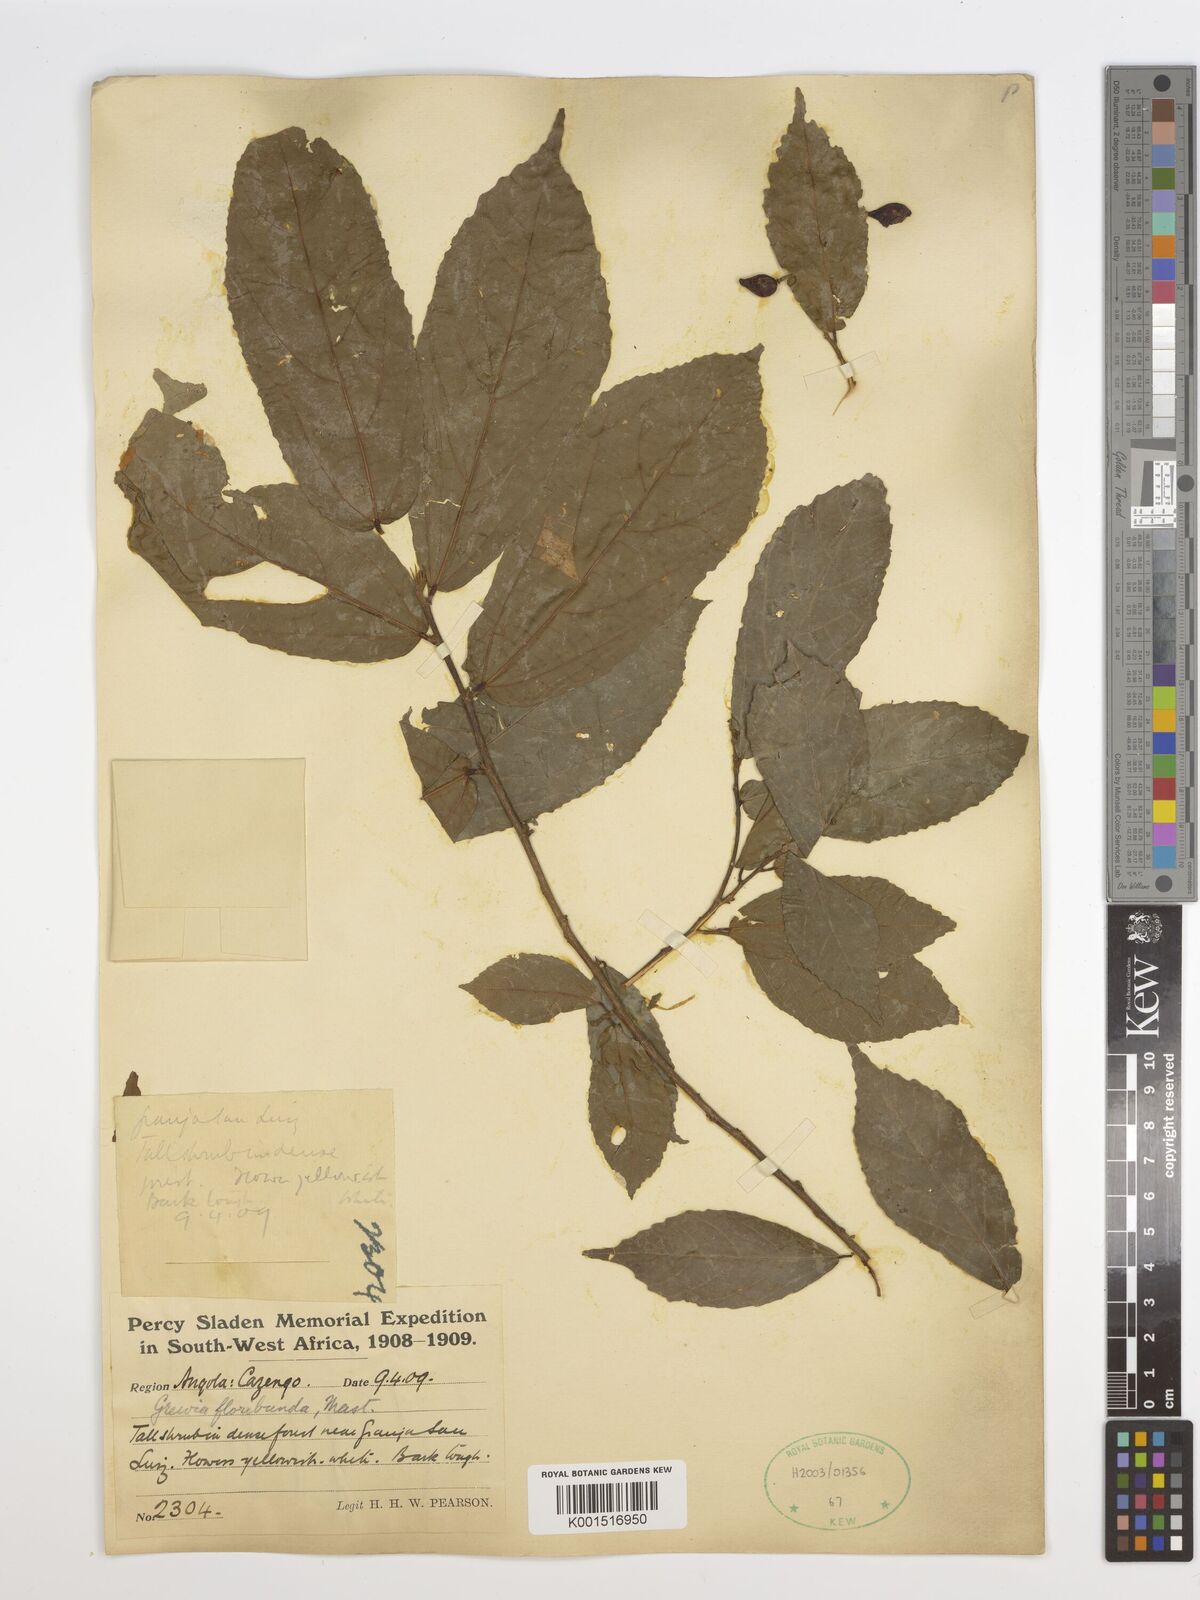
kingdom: Plantae
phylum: Tracheophyta
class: Magnoliopsida
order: Malvales
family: Malvaceae
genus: Grewia
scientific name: Grewia
